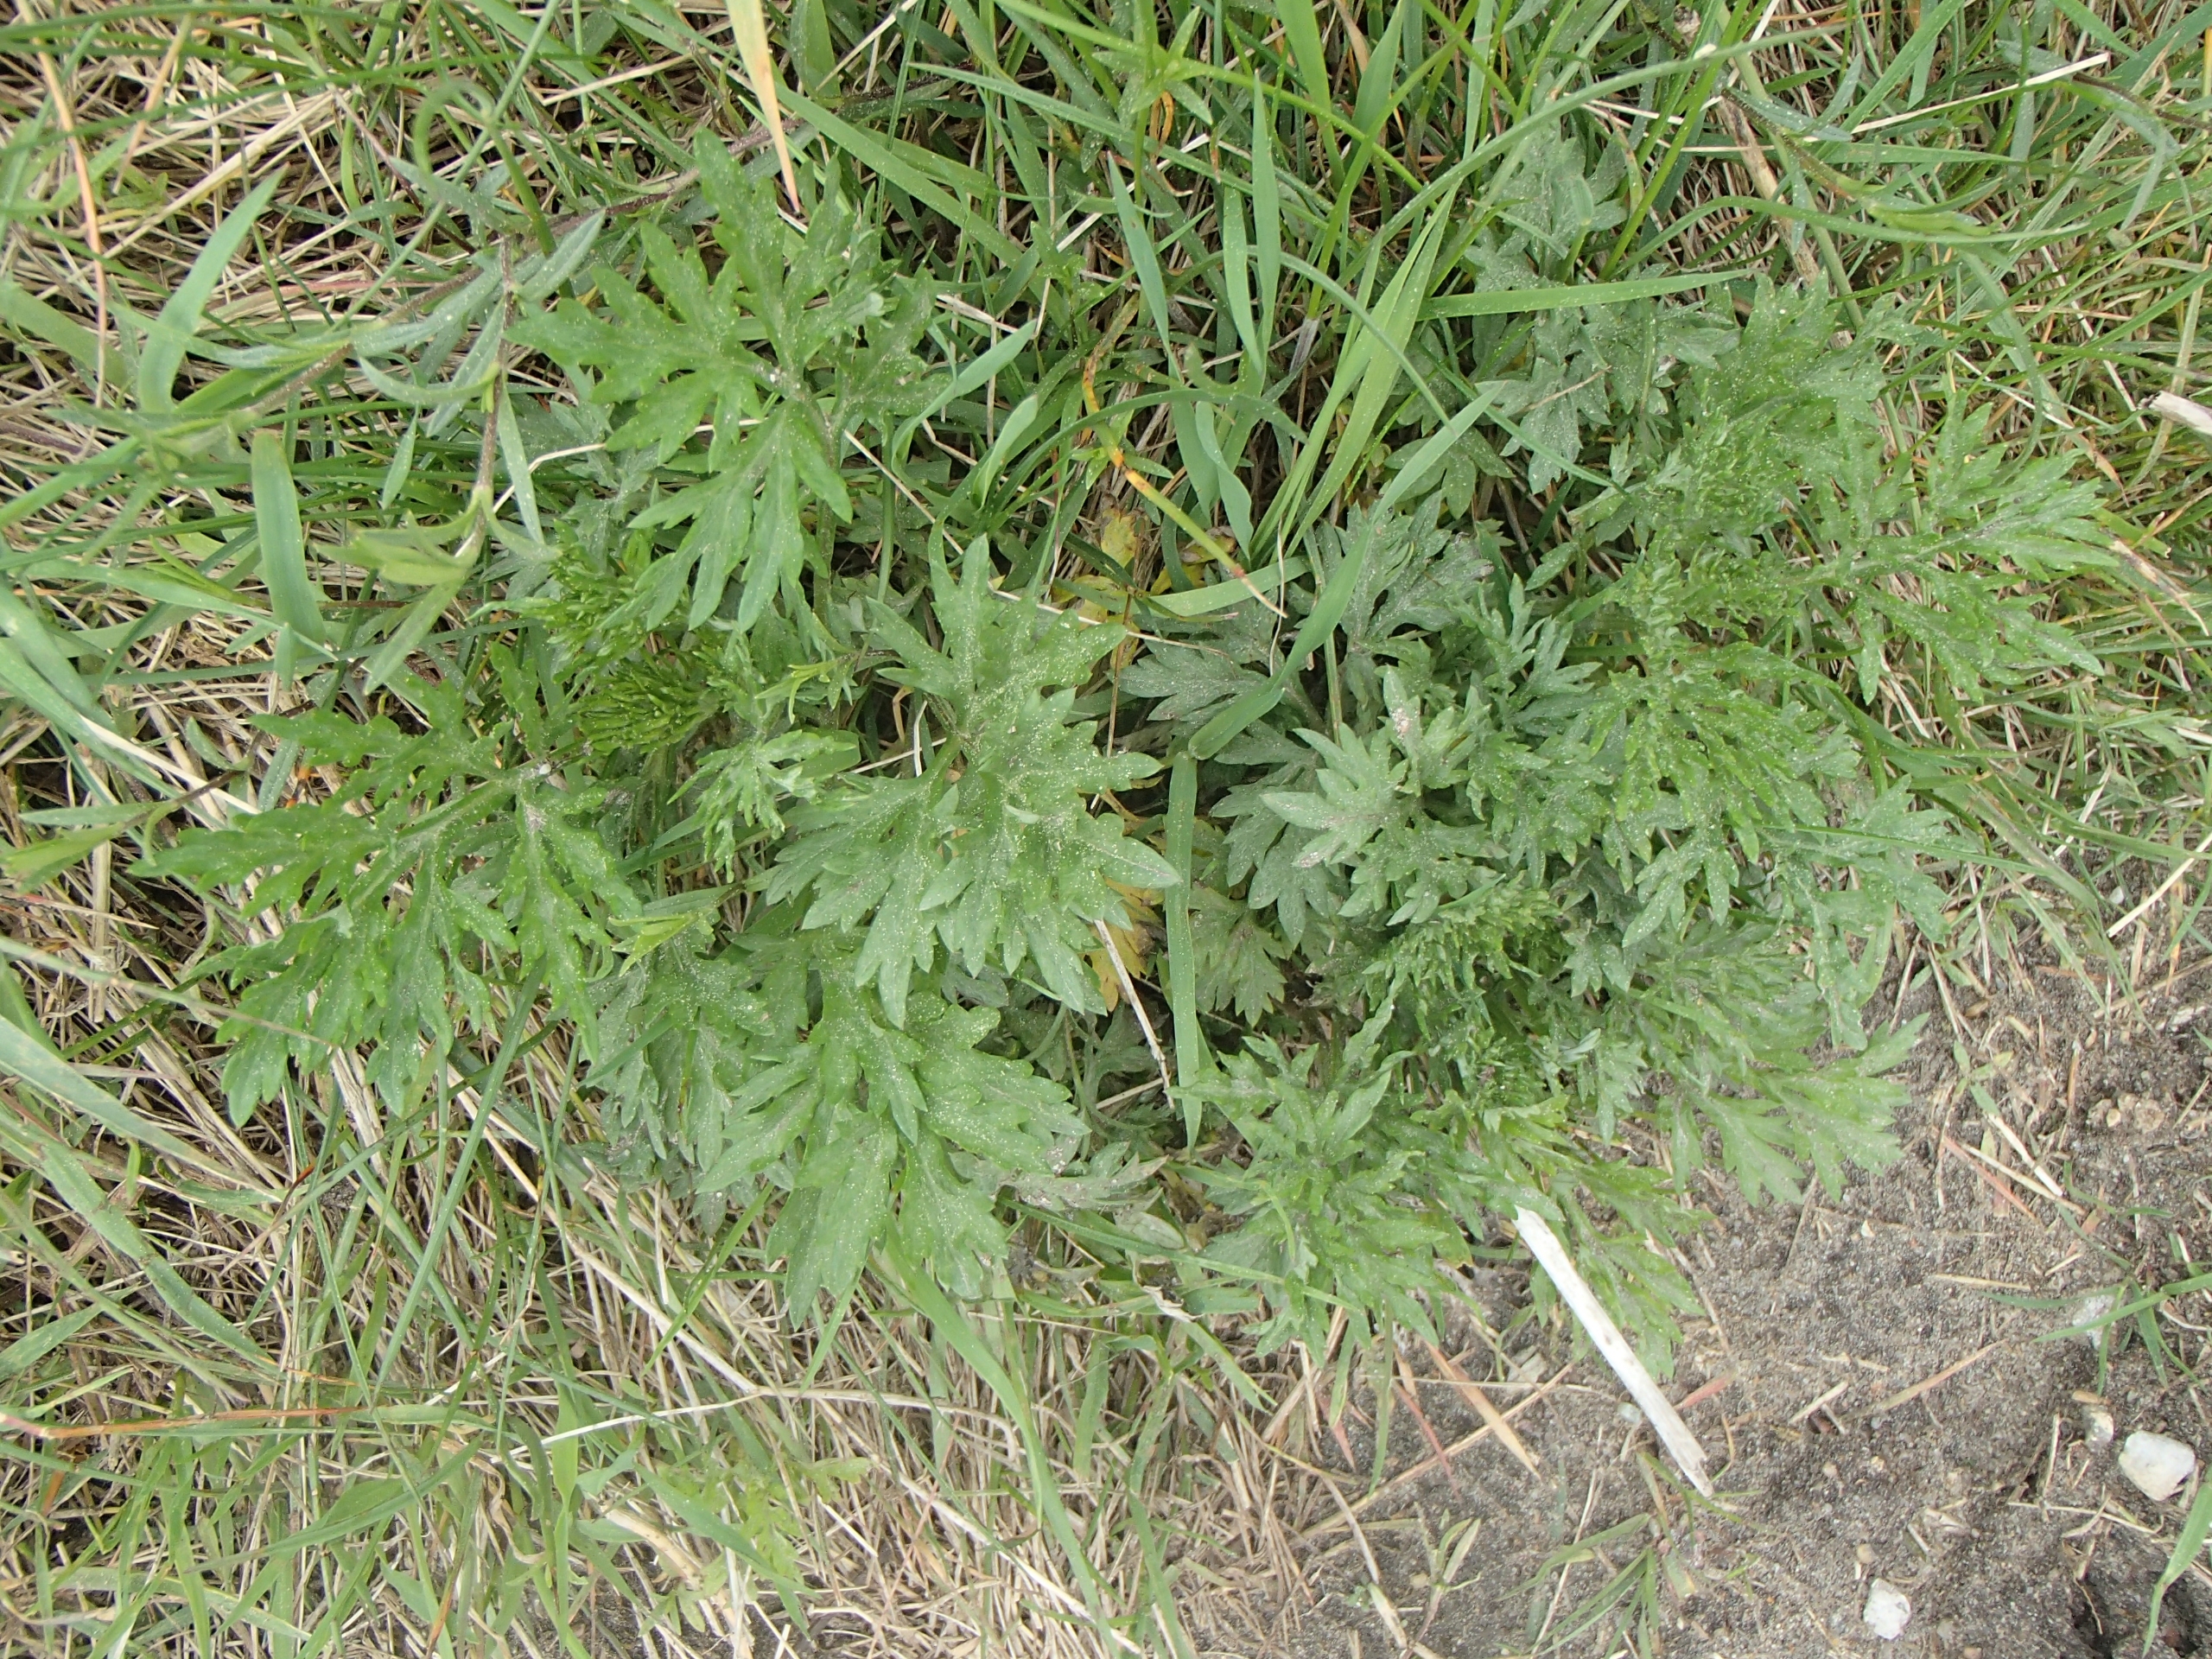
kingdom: Plantae
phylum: Tracheophyta
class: Magnoliopsida
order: Asterales
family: Asteraceae
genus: Artemisia
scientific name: Artemisia vulgaris
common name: Grå-bynke
